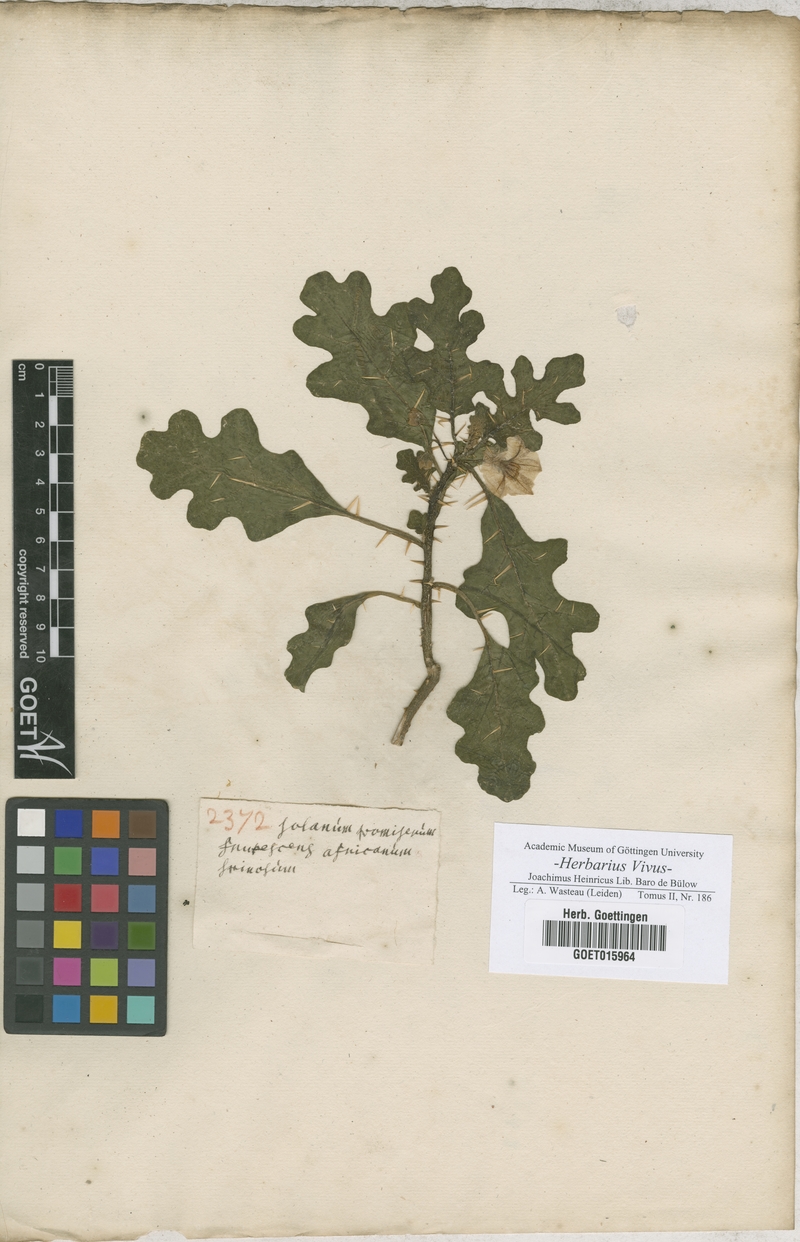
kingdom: Plantae
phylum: Tracheophyta
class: Magnoliopsida
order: Solanales
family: Solanaceae
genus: Solanum
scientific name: Solanum
